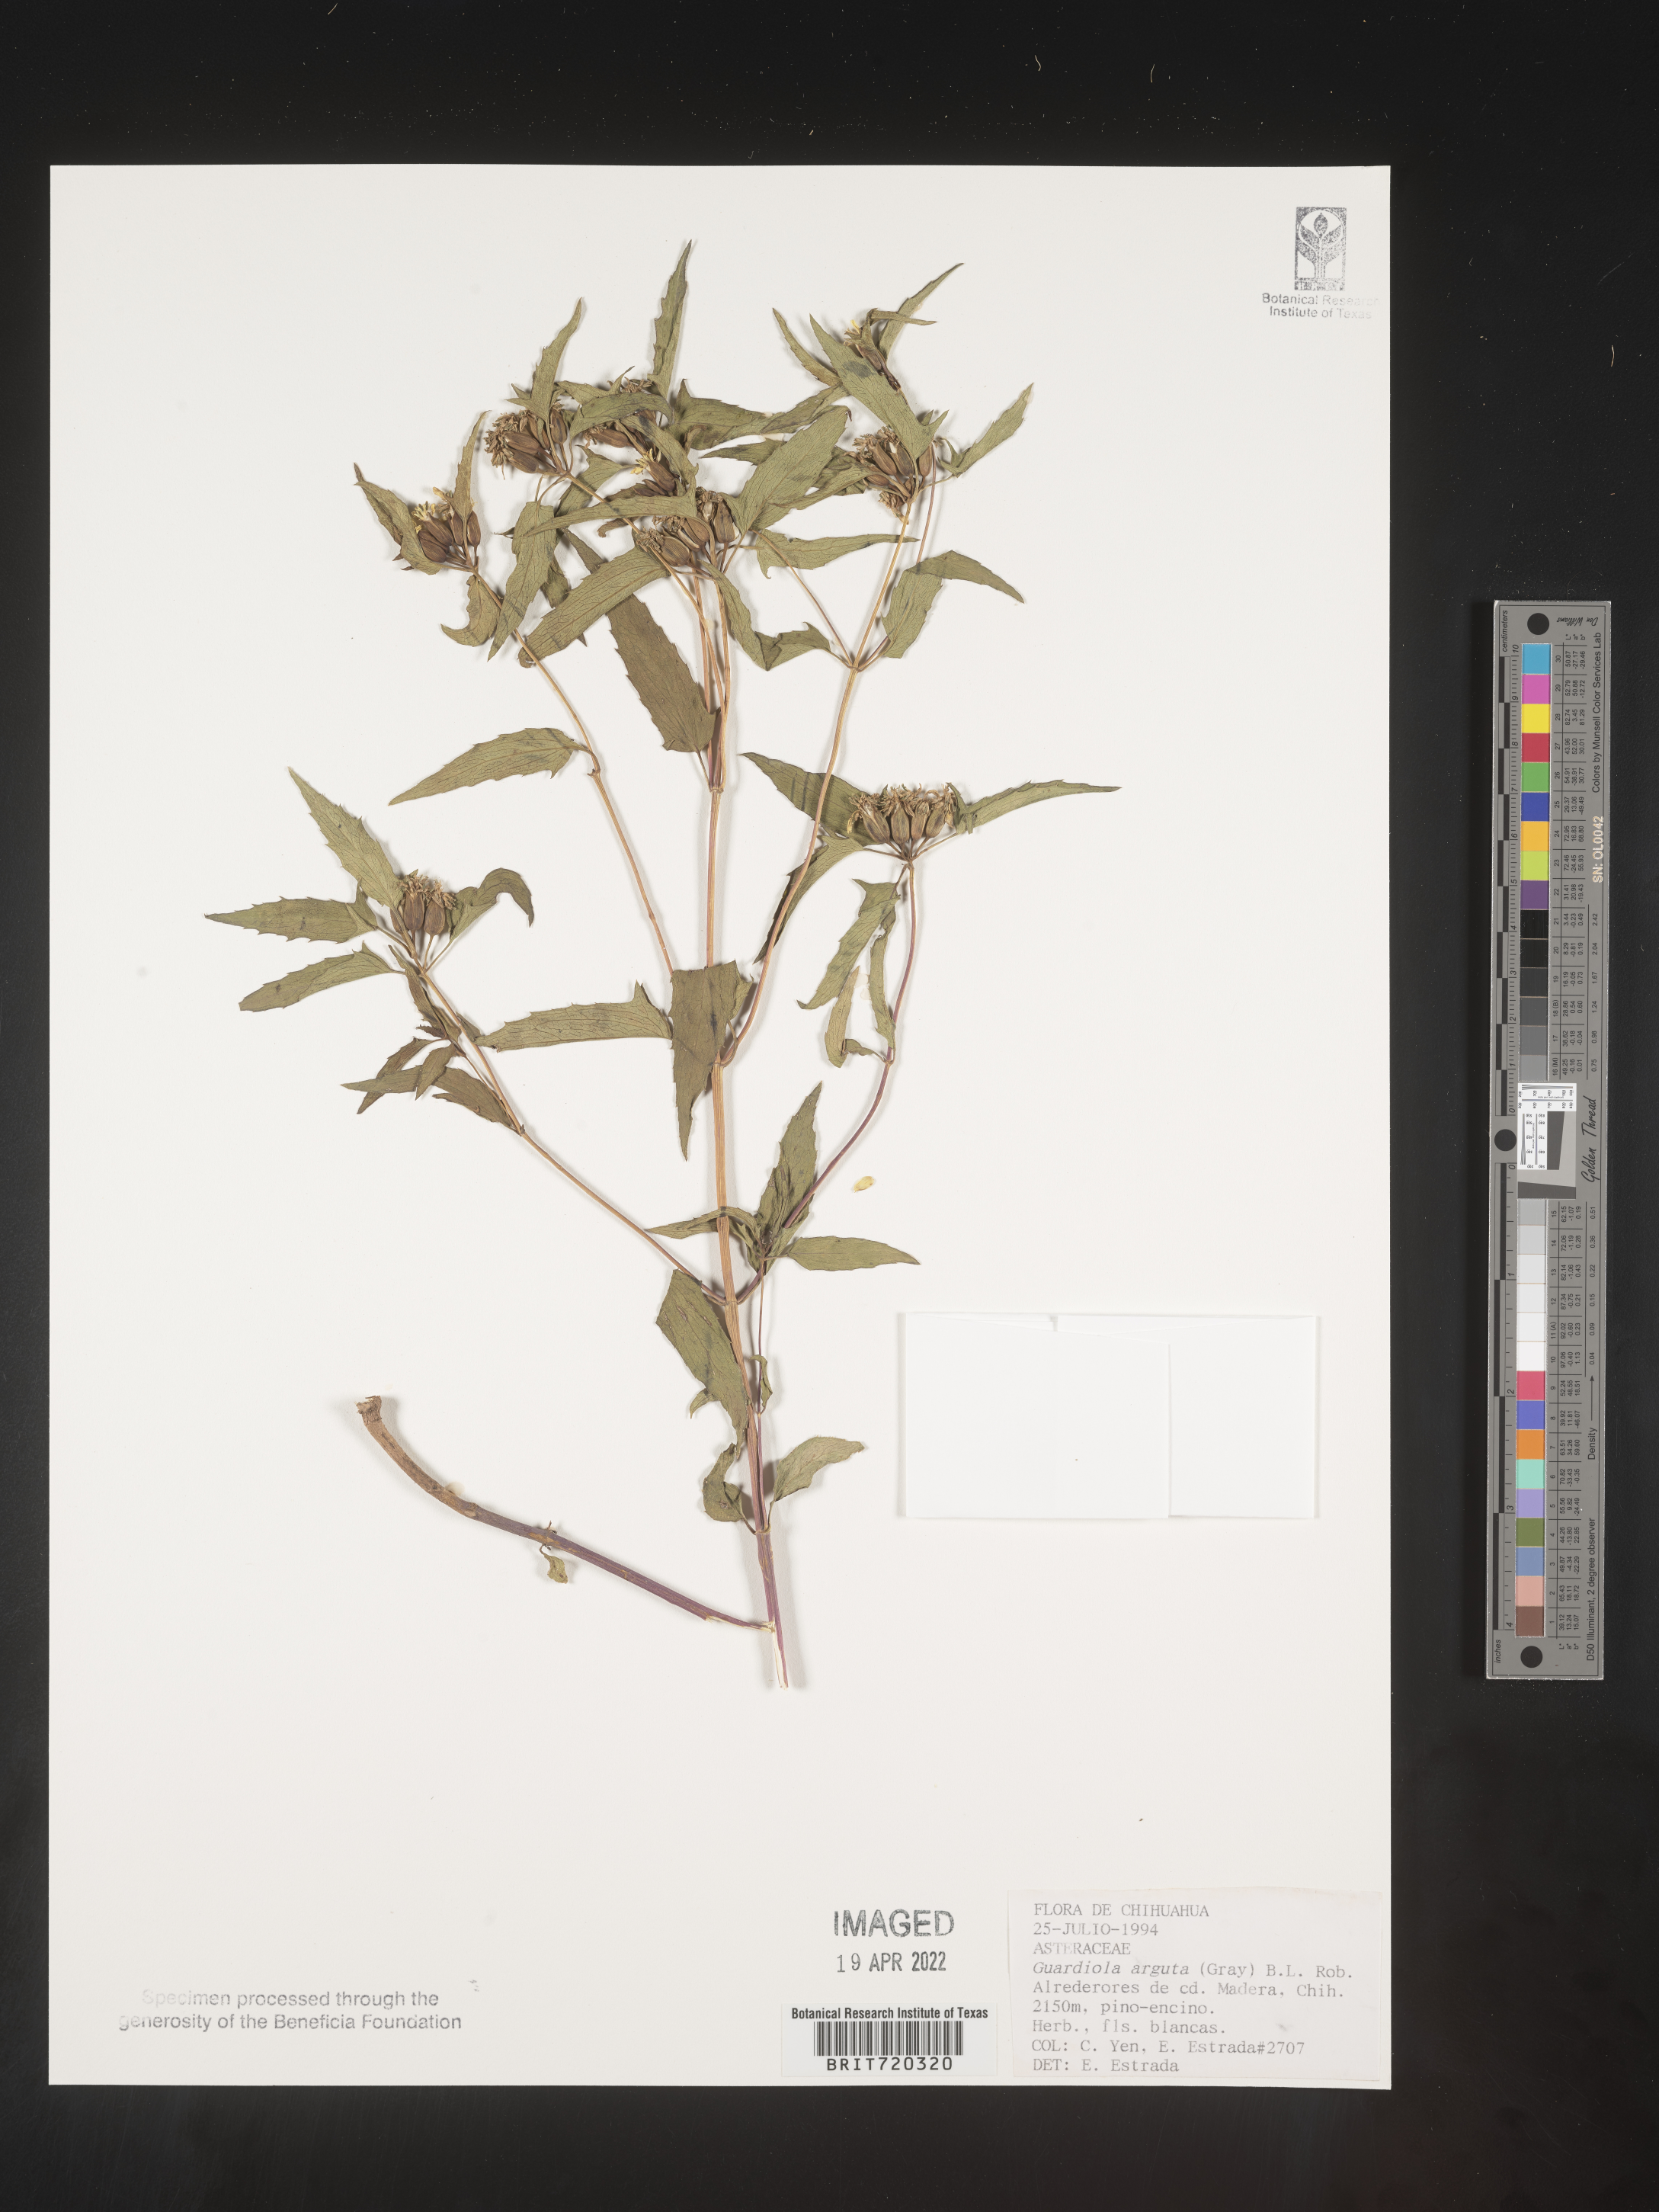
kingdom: Plantae
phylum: Tracheophyta
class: Magnoliopsida
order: Asterales
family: Asteraceae
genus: Guardiola
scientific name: Guardiola
